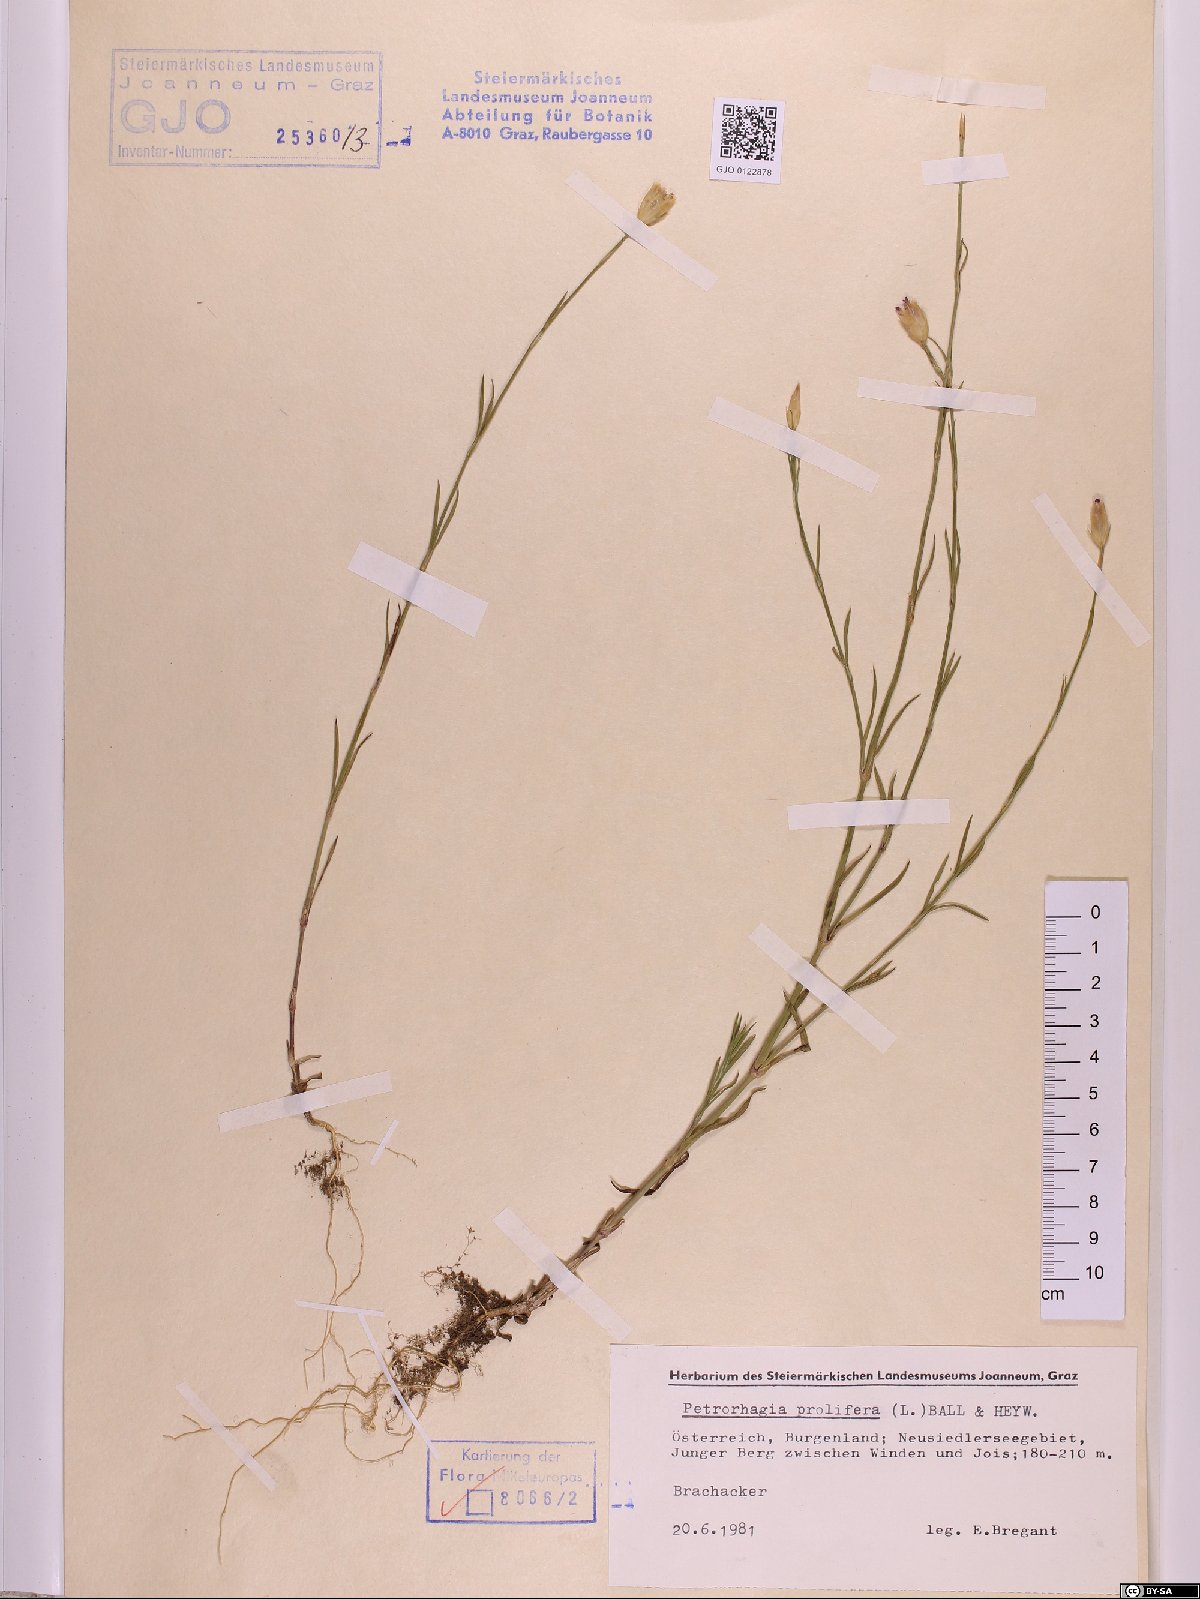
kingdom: Plantae
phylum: Tracheophyta
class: Magnoliopsida
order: Caryophyllales
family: Caryophyllaceae
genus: Petrorhagia
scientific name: Petrorhagia prolifera
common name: Proliferous pink
